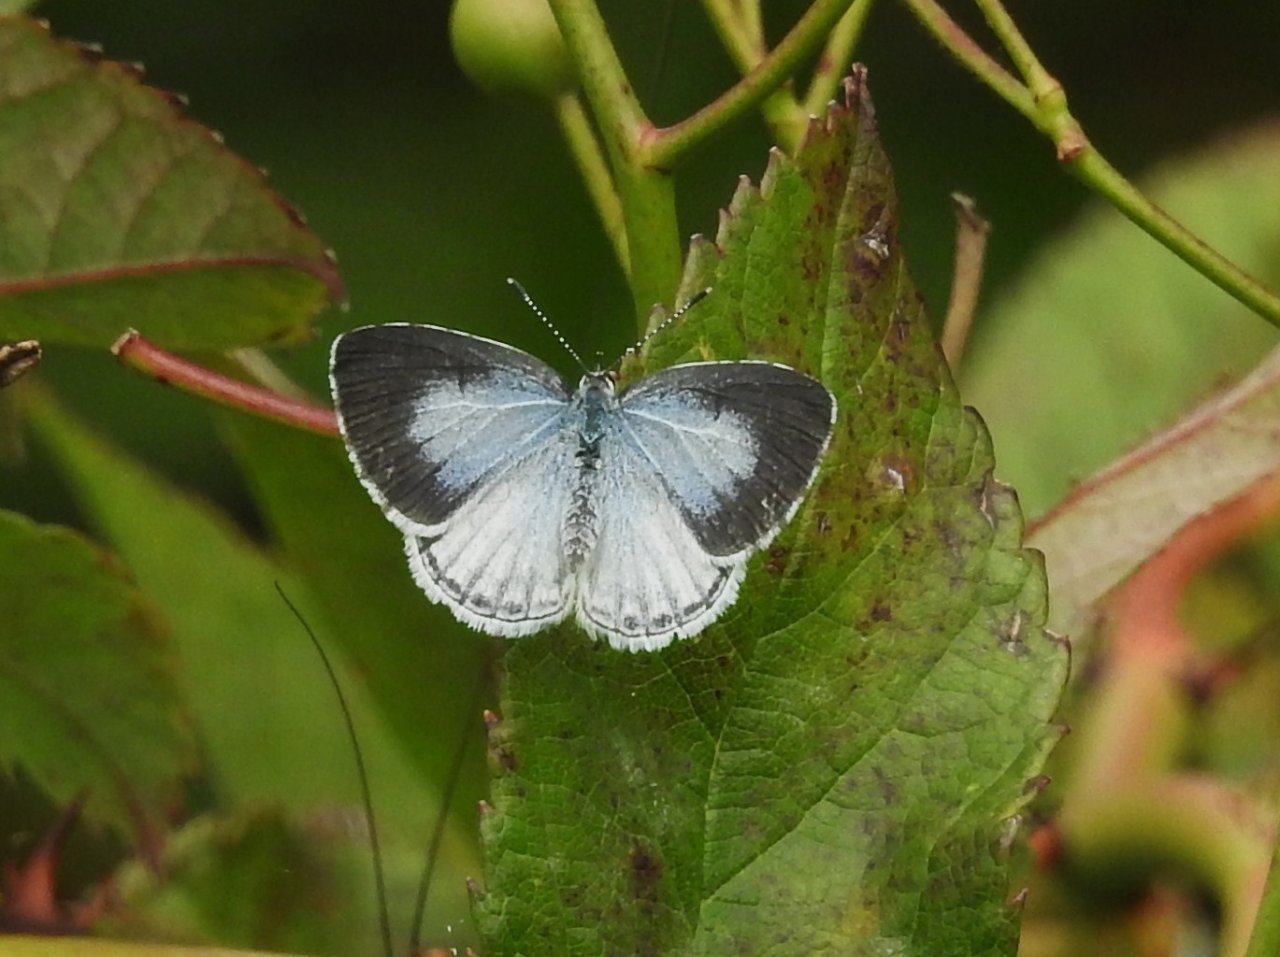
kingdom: Animalia
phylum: Arthropoda
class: Insecta
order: Lepidoptera
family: Lycaenidae
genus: Celastrina
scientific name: Celastrina
